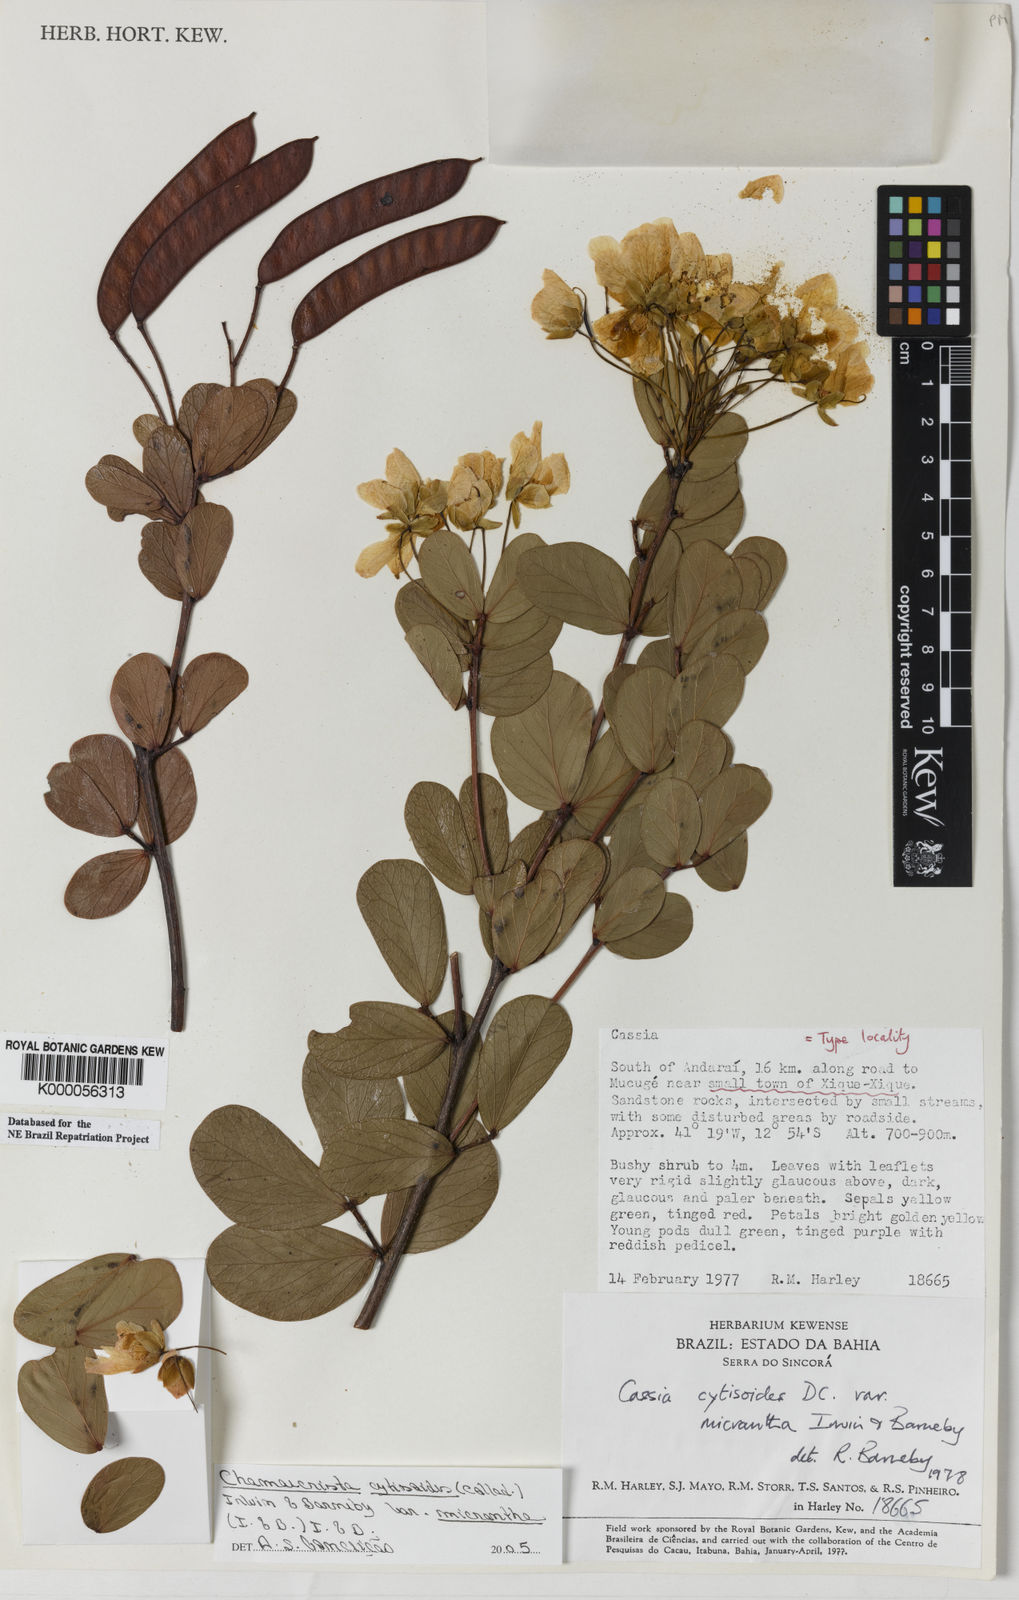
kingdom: Plantae
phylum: Tracheophyta
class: Magnoliopsida
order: Fabales
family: Fabaceae
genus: Chamaecrista
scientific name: Chamaecrista cytisoides
